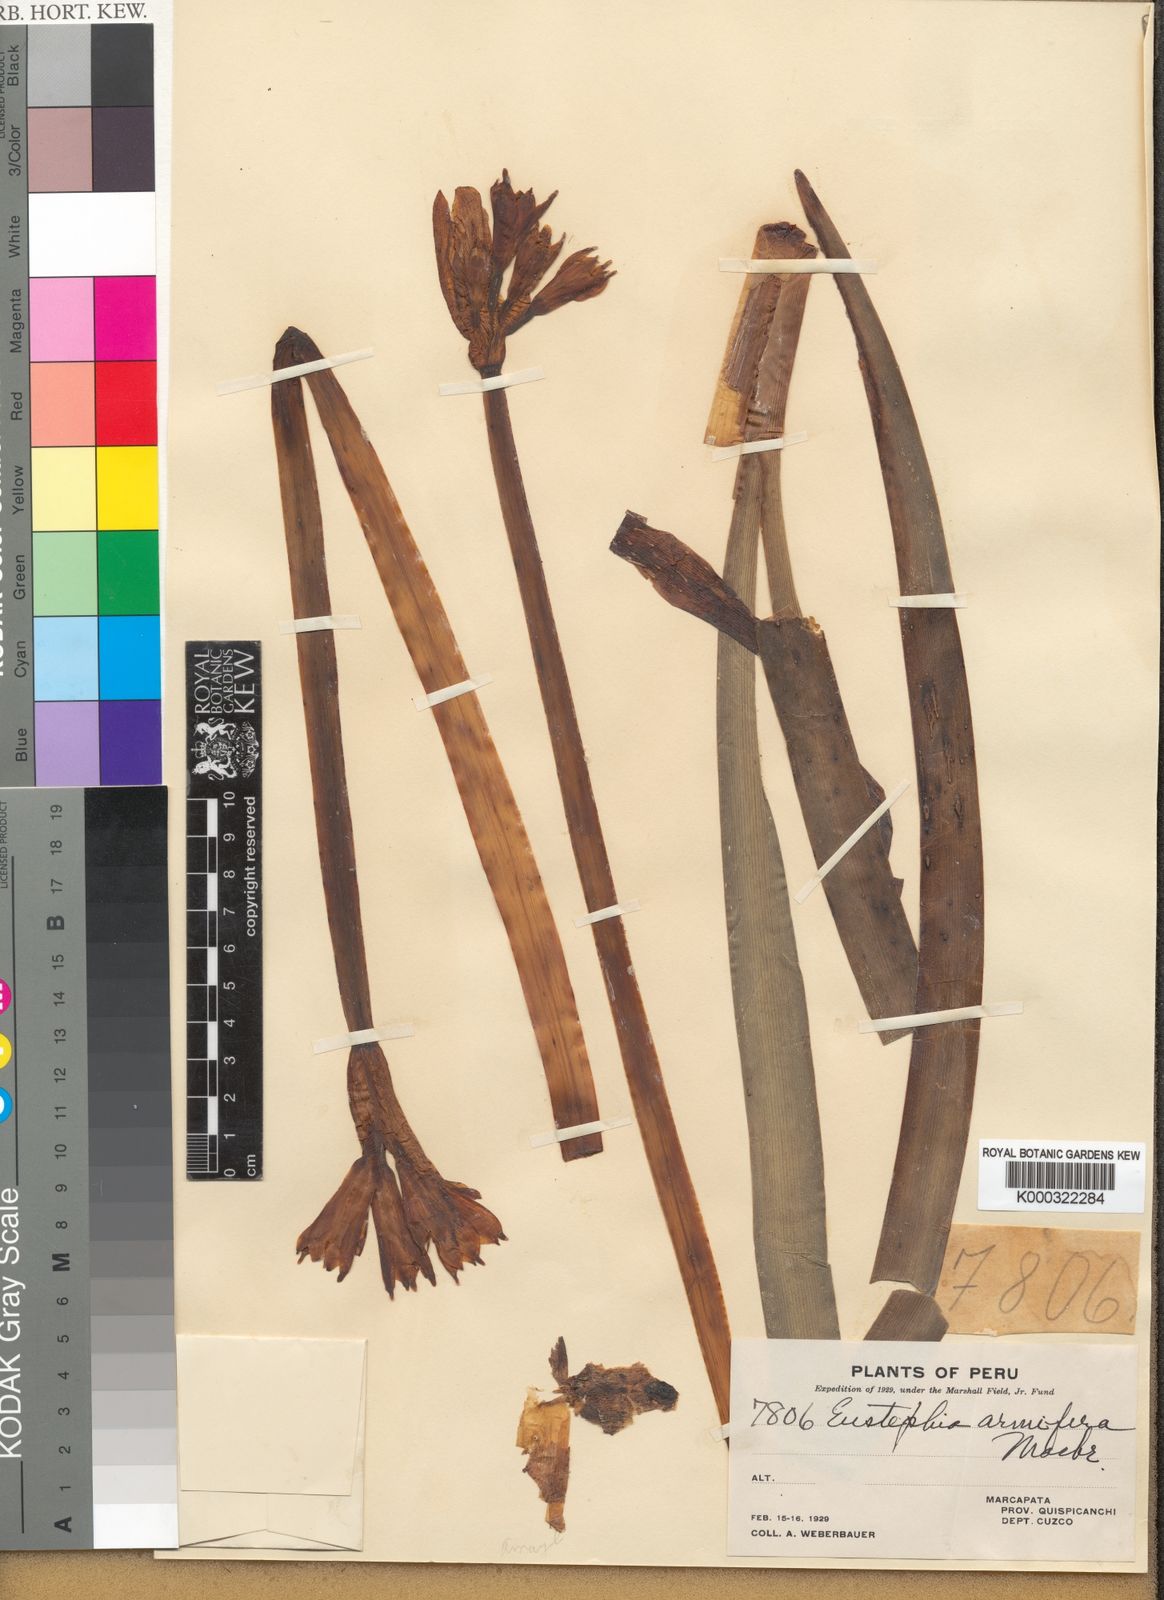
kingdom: Plantae
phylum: Tracheophyta
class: Liliopsida
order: Asparagales
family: Amaryllidaceae
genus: Eustephia
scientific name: Eustephia armifera
